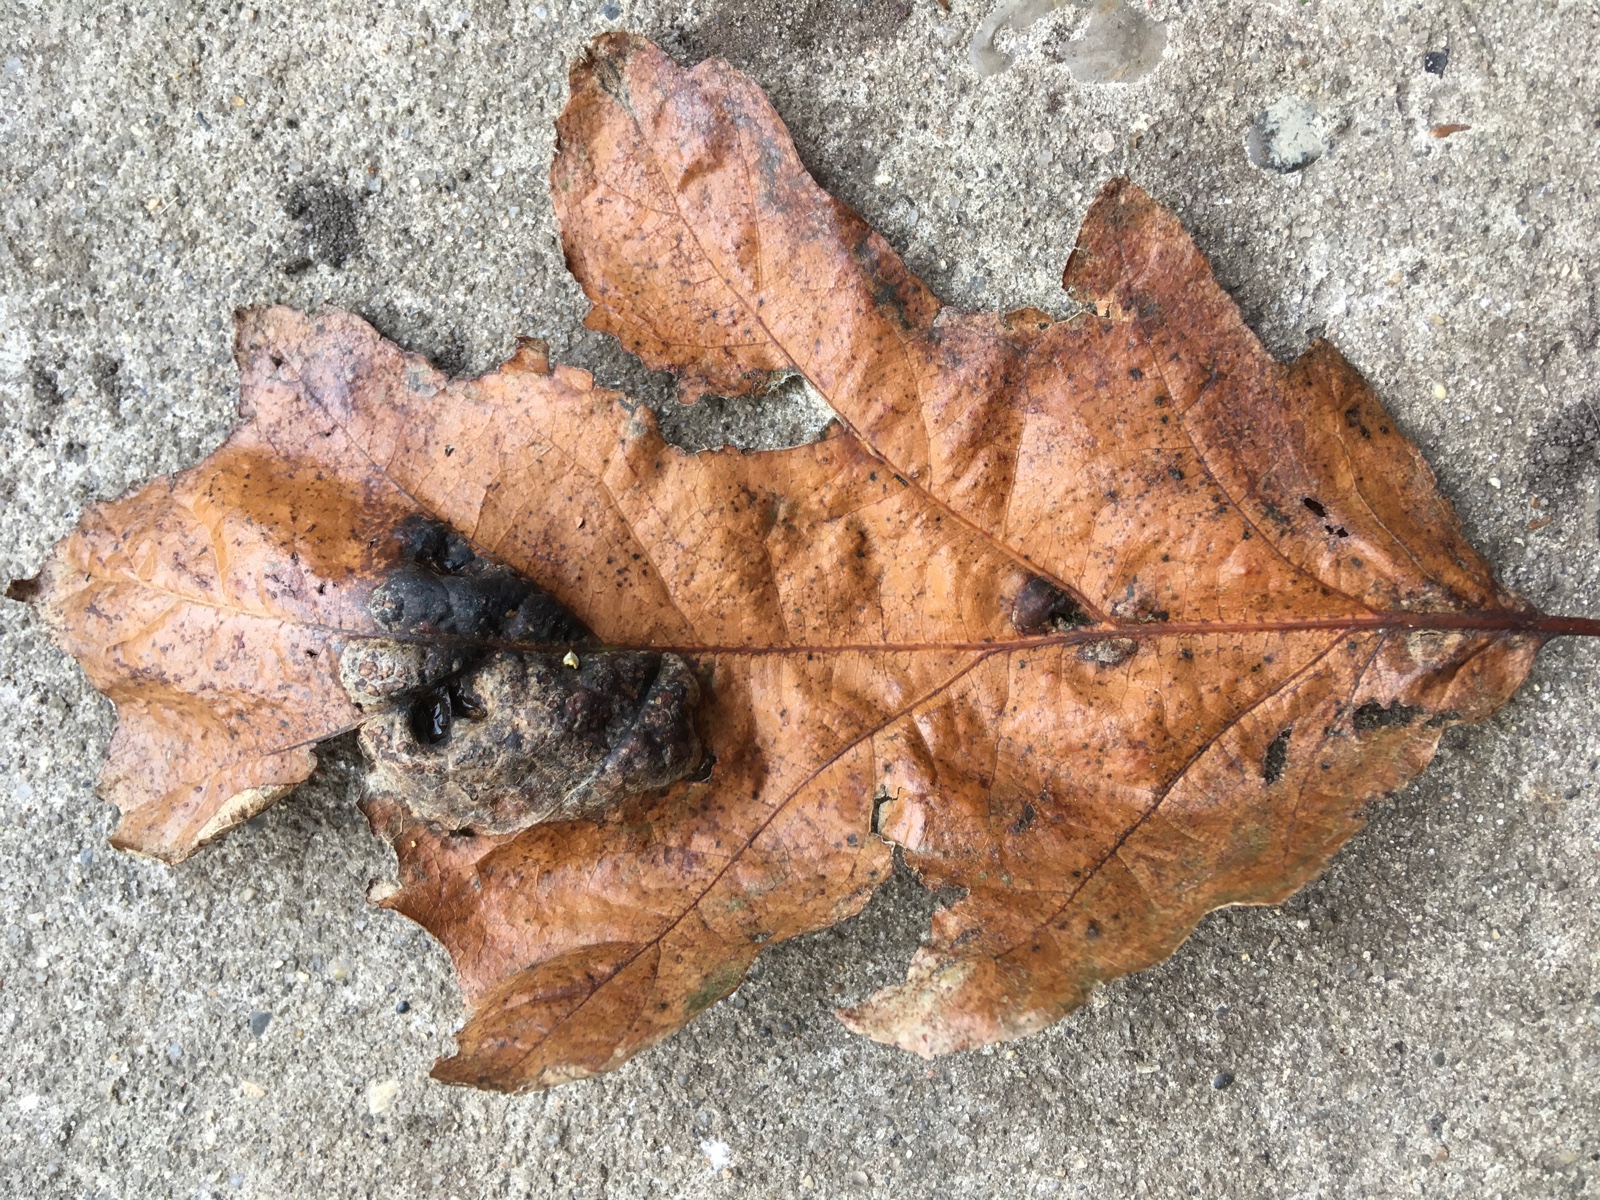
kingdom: Fungi
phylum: Ascomycota
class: Taphrinomycetes
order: Taphrinales
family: Taphrinaceae
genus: Taphrina
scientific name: Taphrina caerulescens
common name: Oak leaf blister
